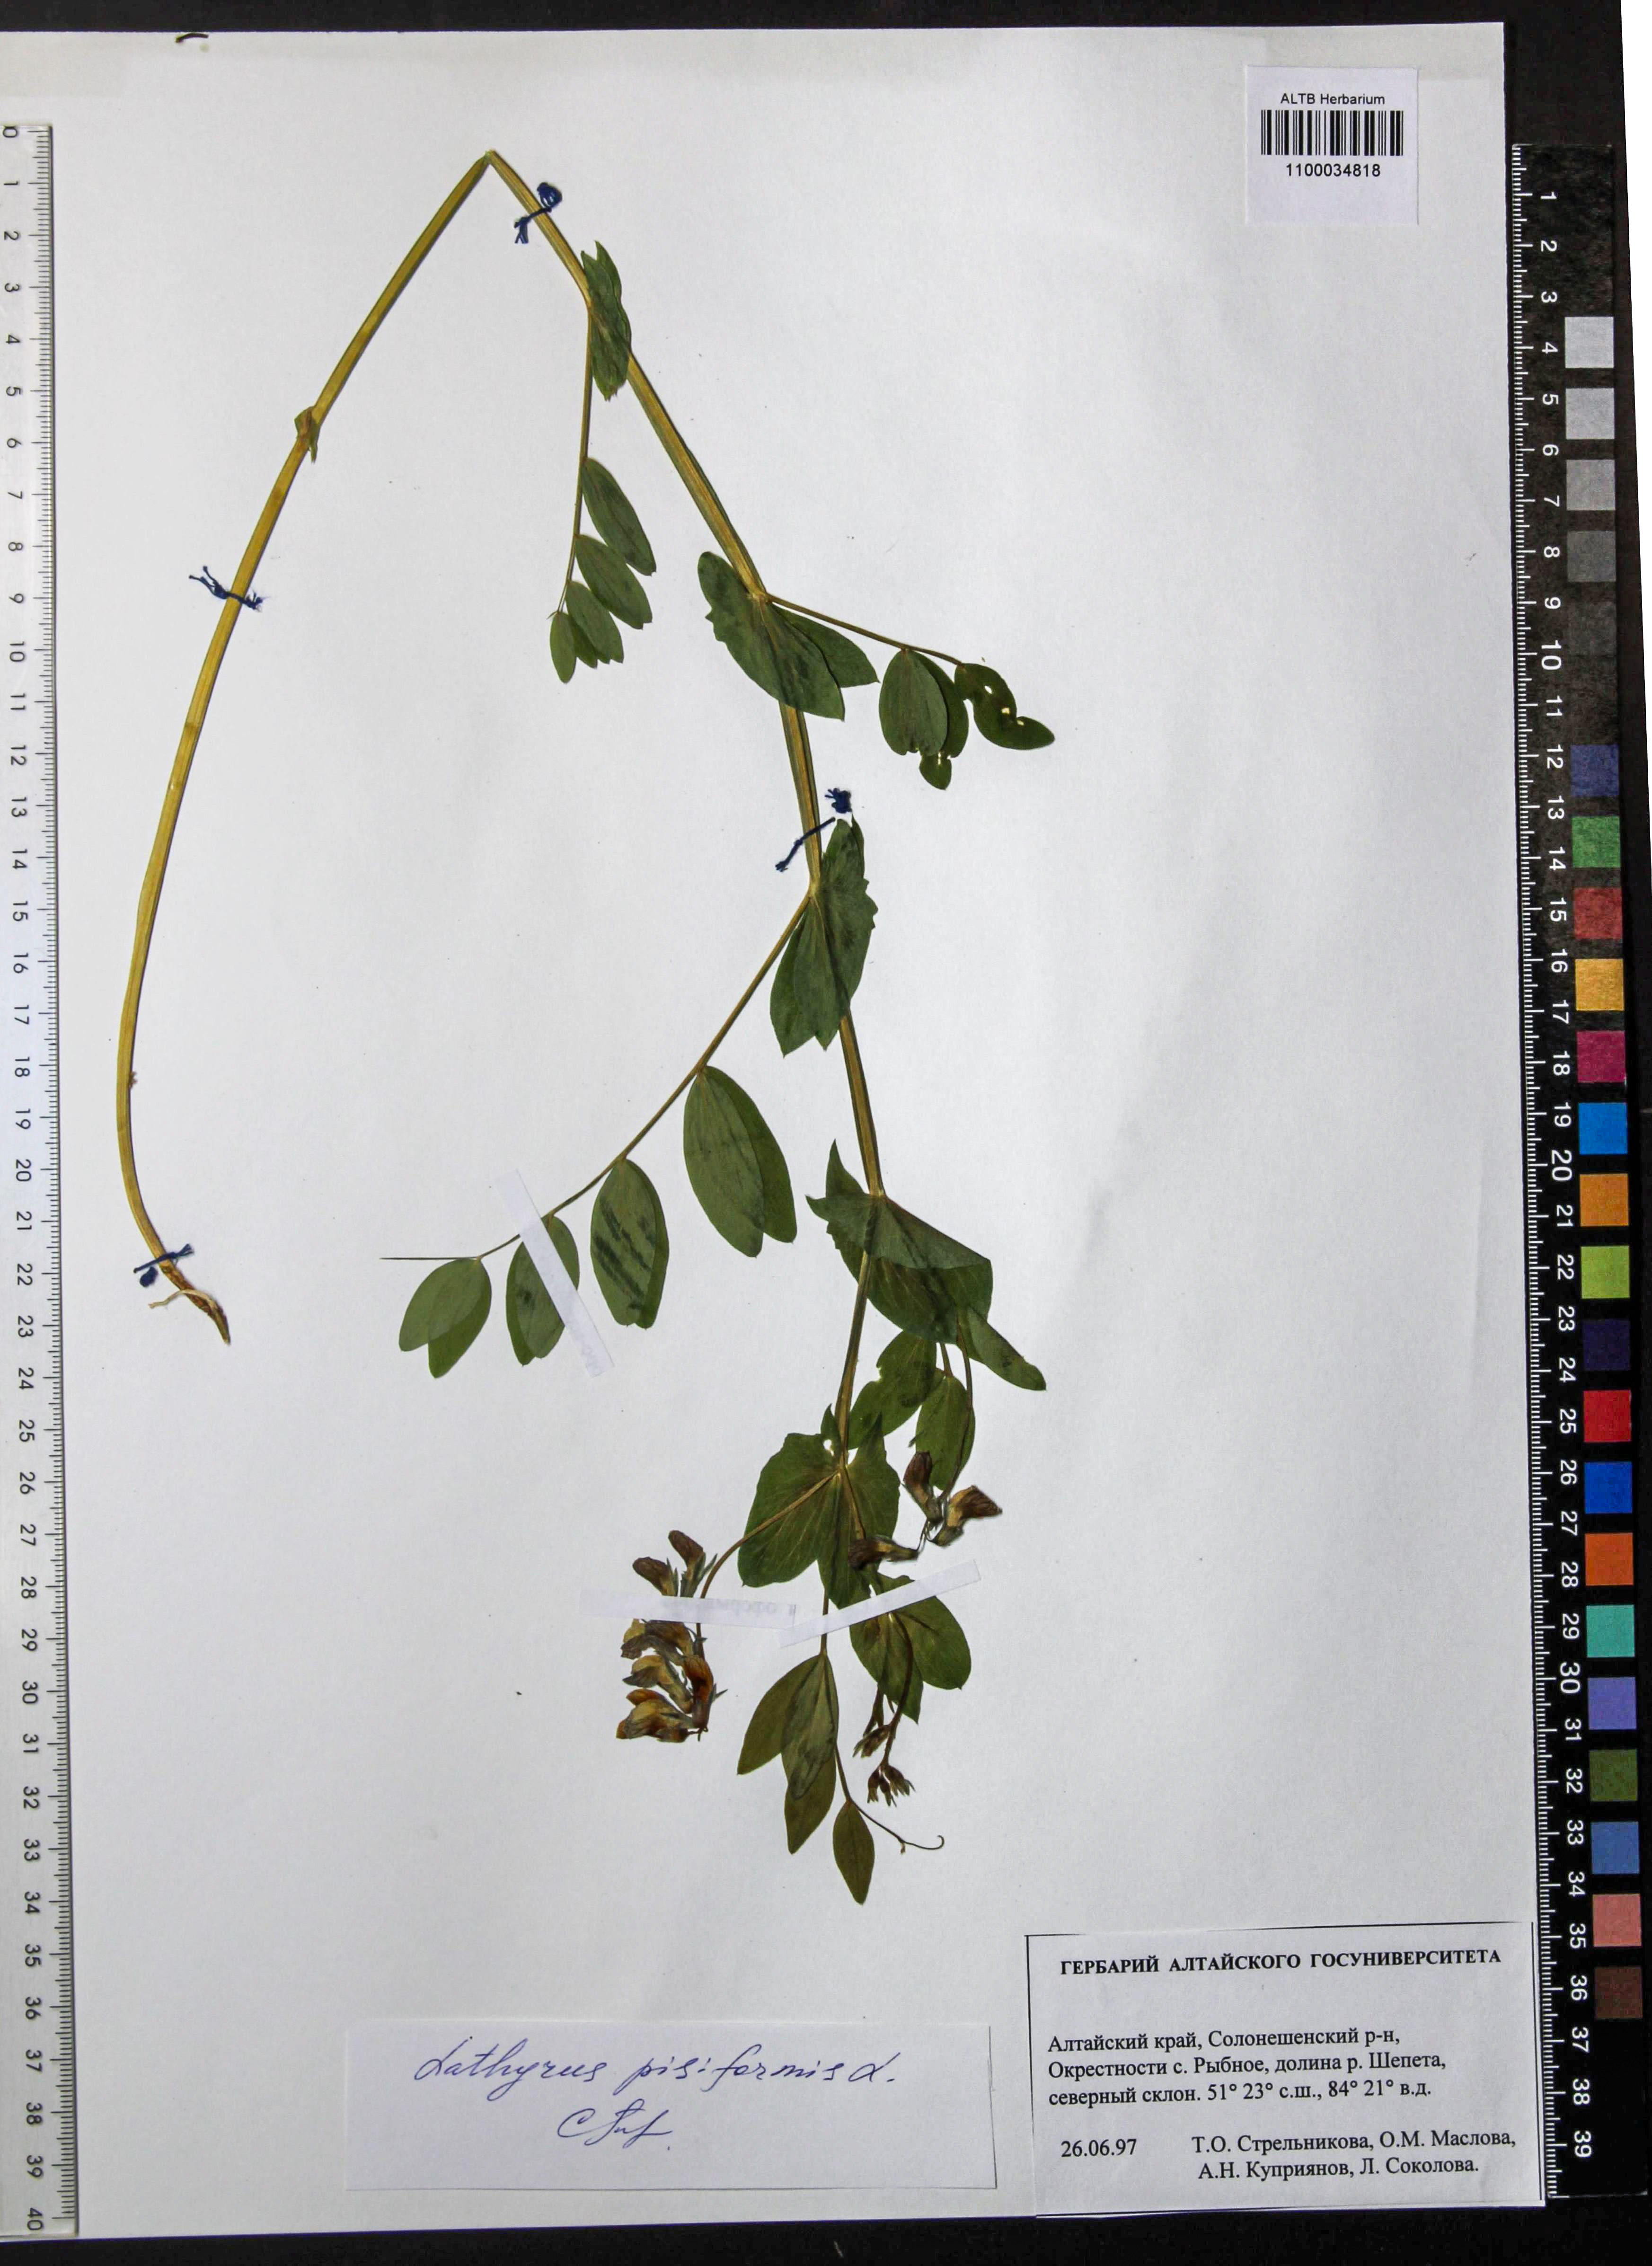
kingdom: Plantae
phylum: Tracheophyta
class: Magnoliopsida
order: Fabales
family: Fabaceae
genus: Lathyrus
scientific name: Lathyrus pisiformis
